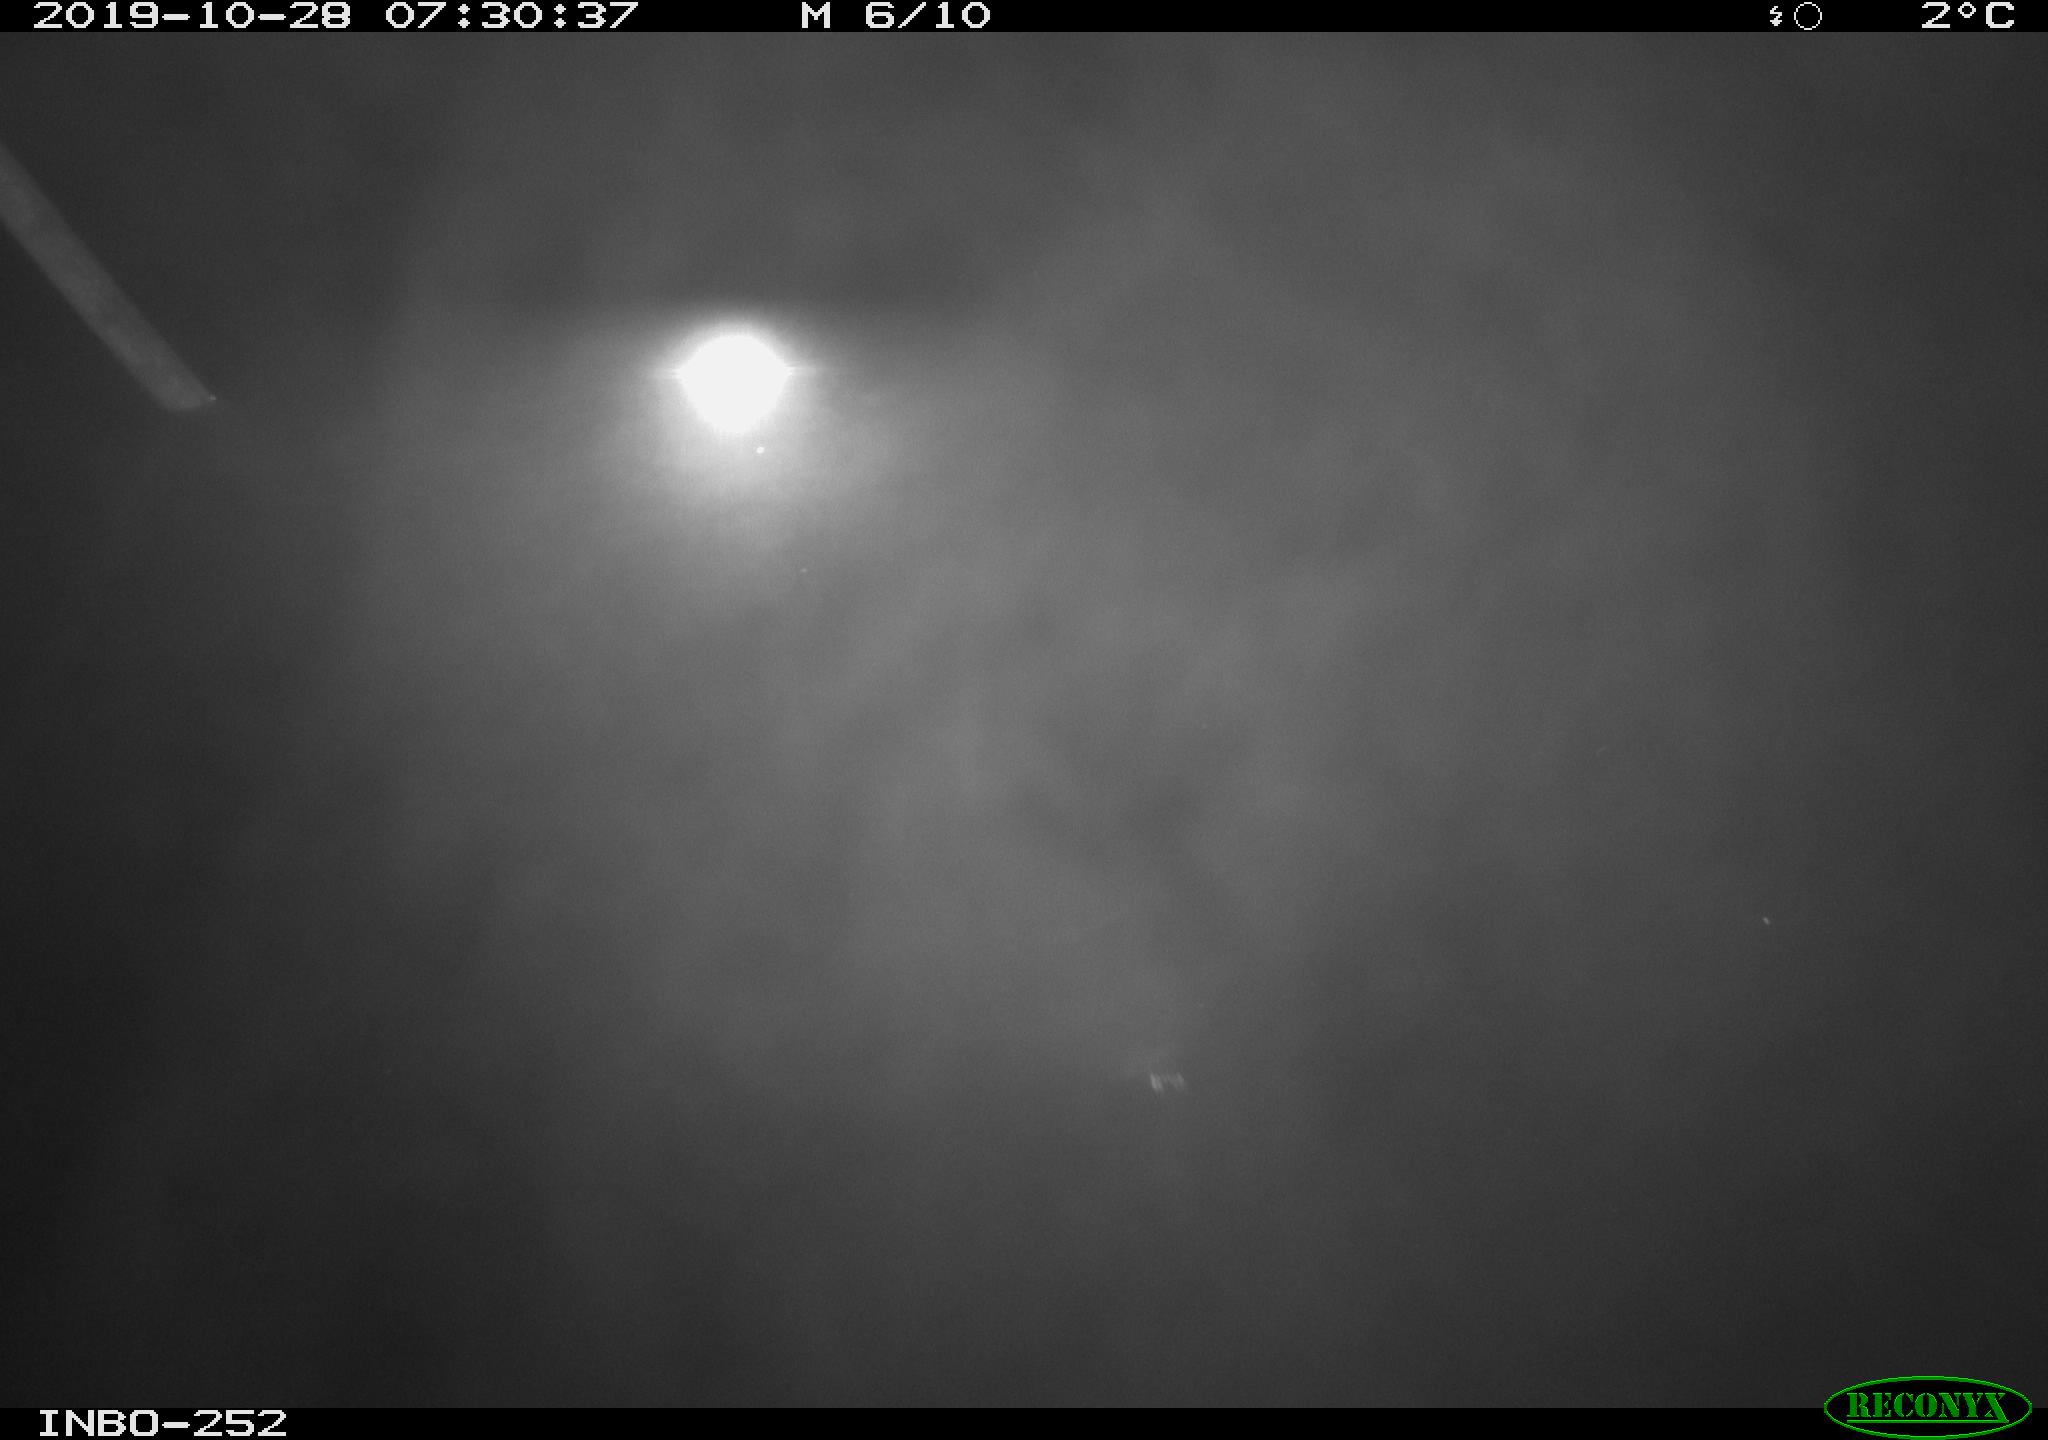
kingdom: Animalia
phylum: Chordata
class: Aves
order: Gruiformes
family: Rallidae
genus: Gallinula
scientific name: Gallinula chloropus
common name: Common moorhen
